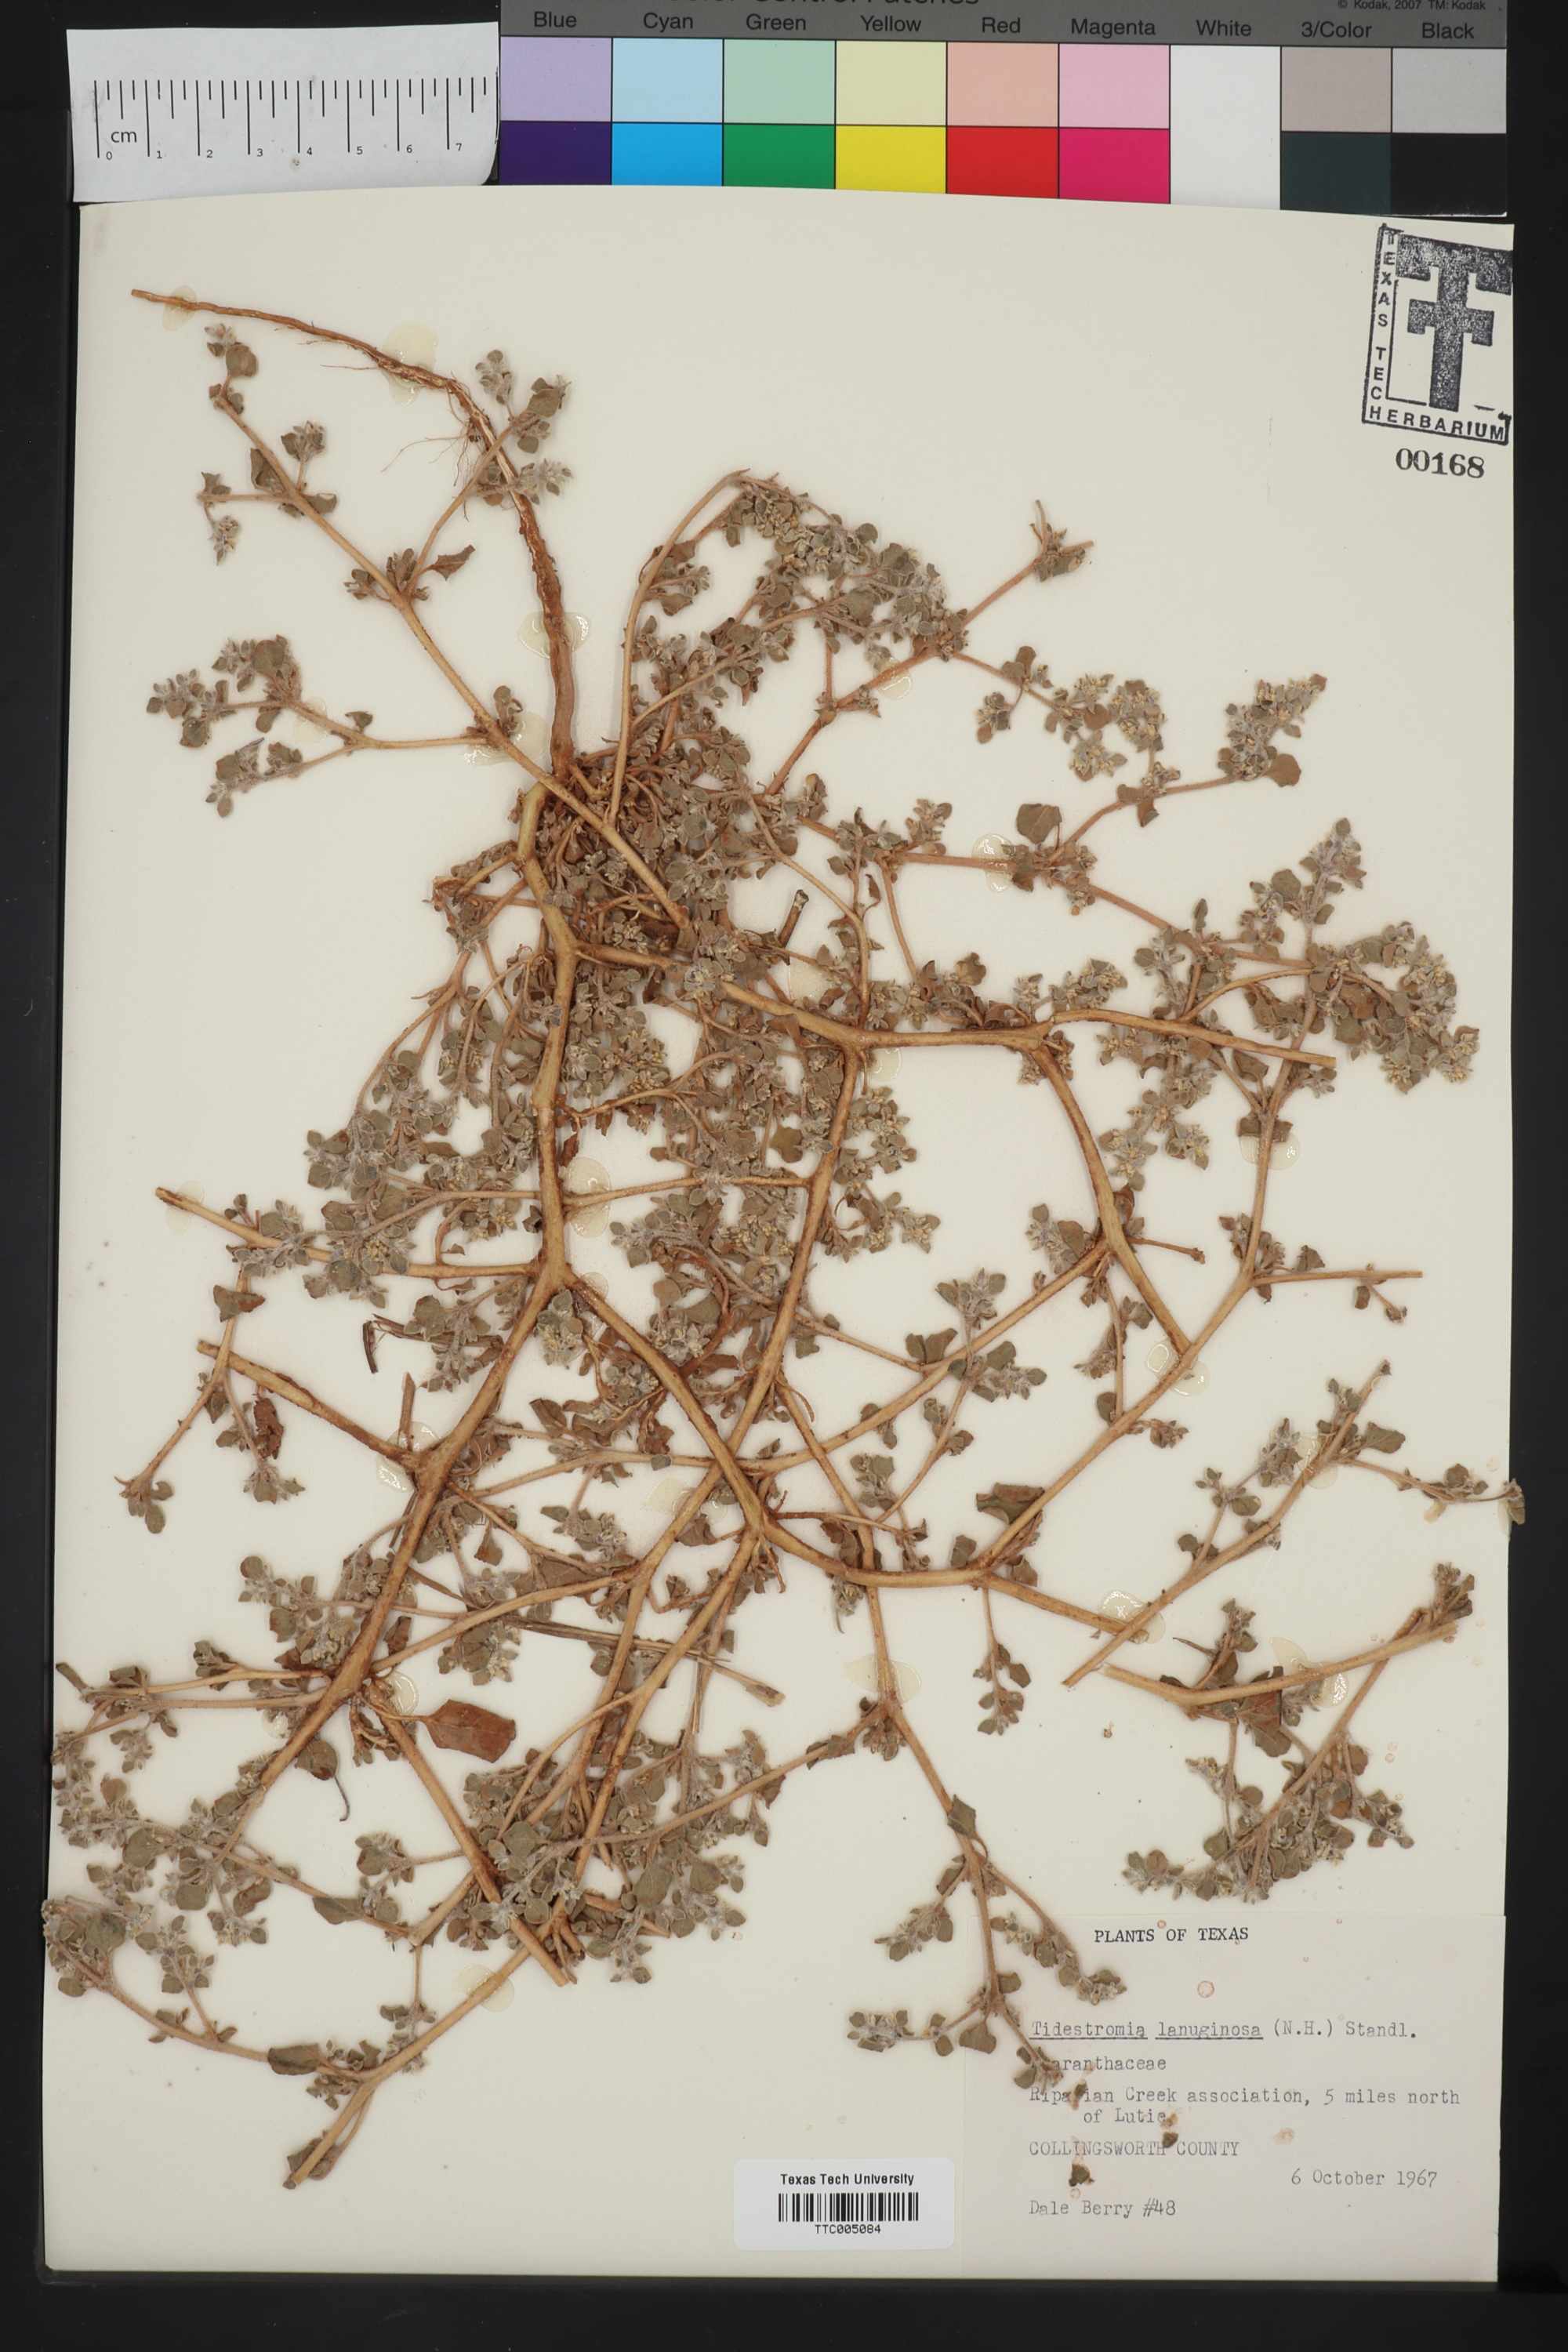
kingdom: Plantae
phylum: Tracheophyta
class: Magnoliopsida
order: Caryophyllales
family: Amaranthaceae
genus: Tidestromia
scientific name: Tidestromia lanuginosa
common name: Woolly tidestromia
